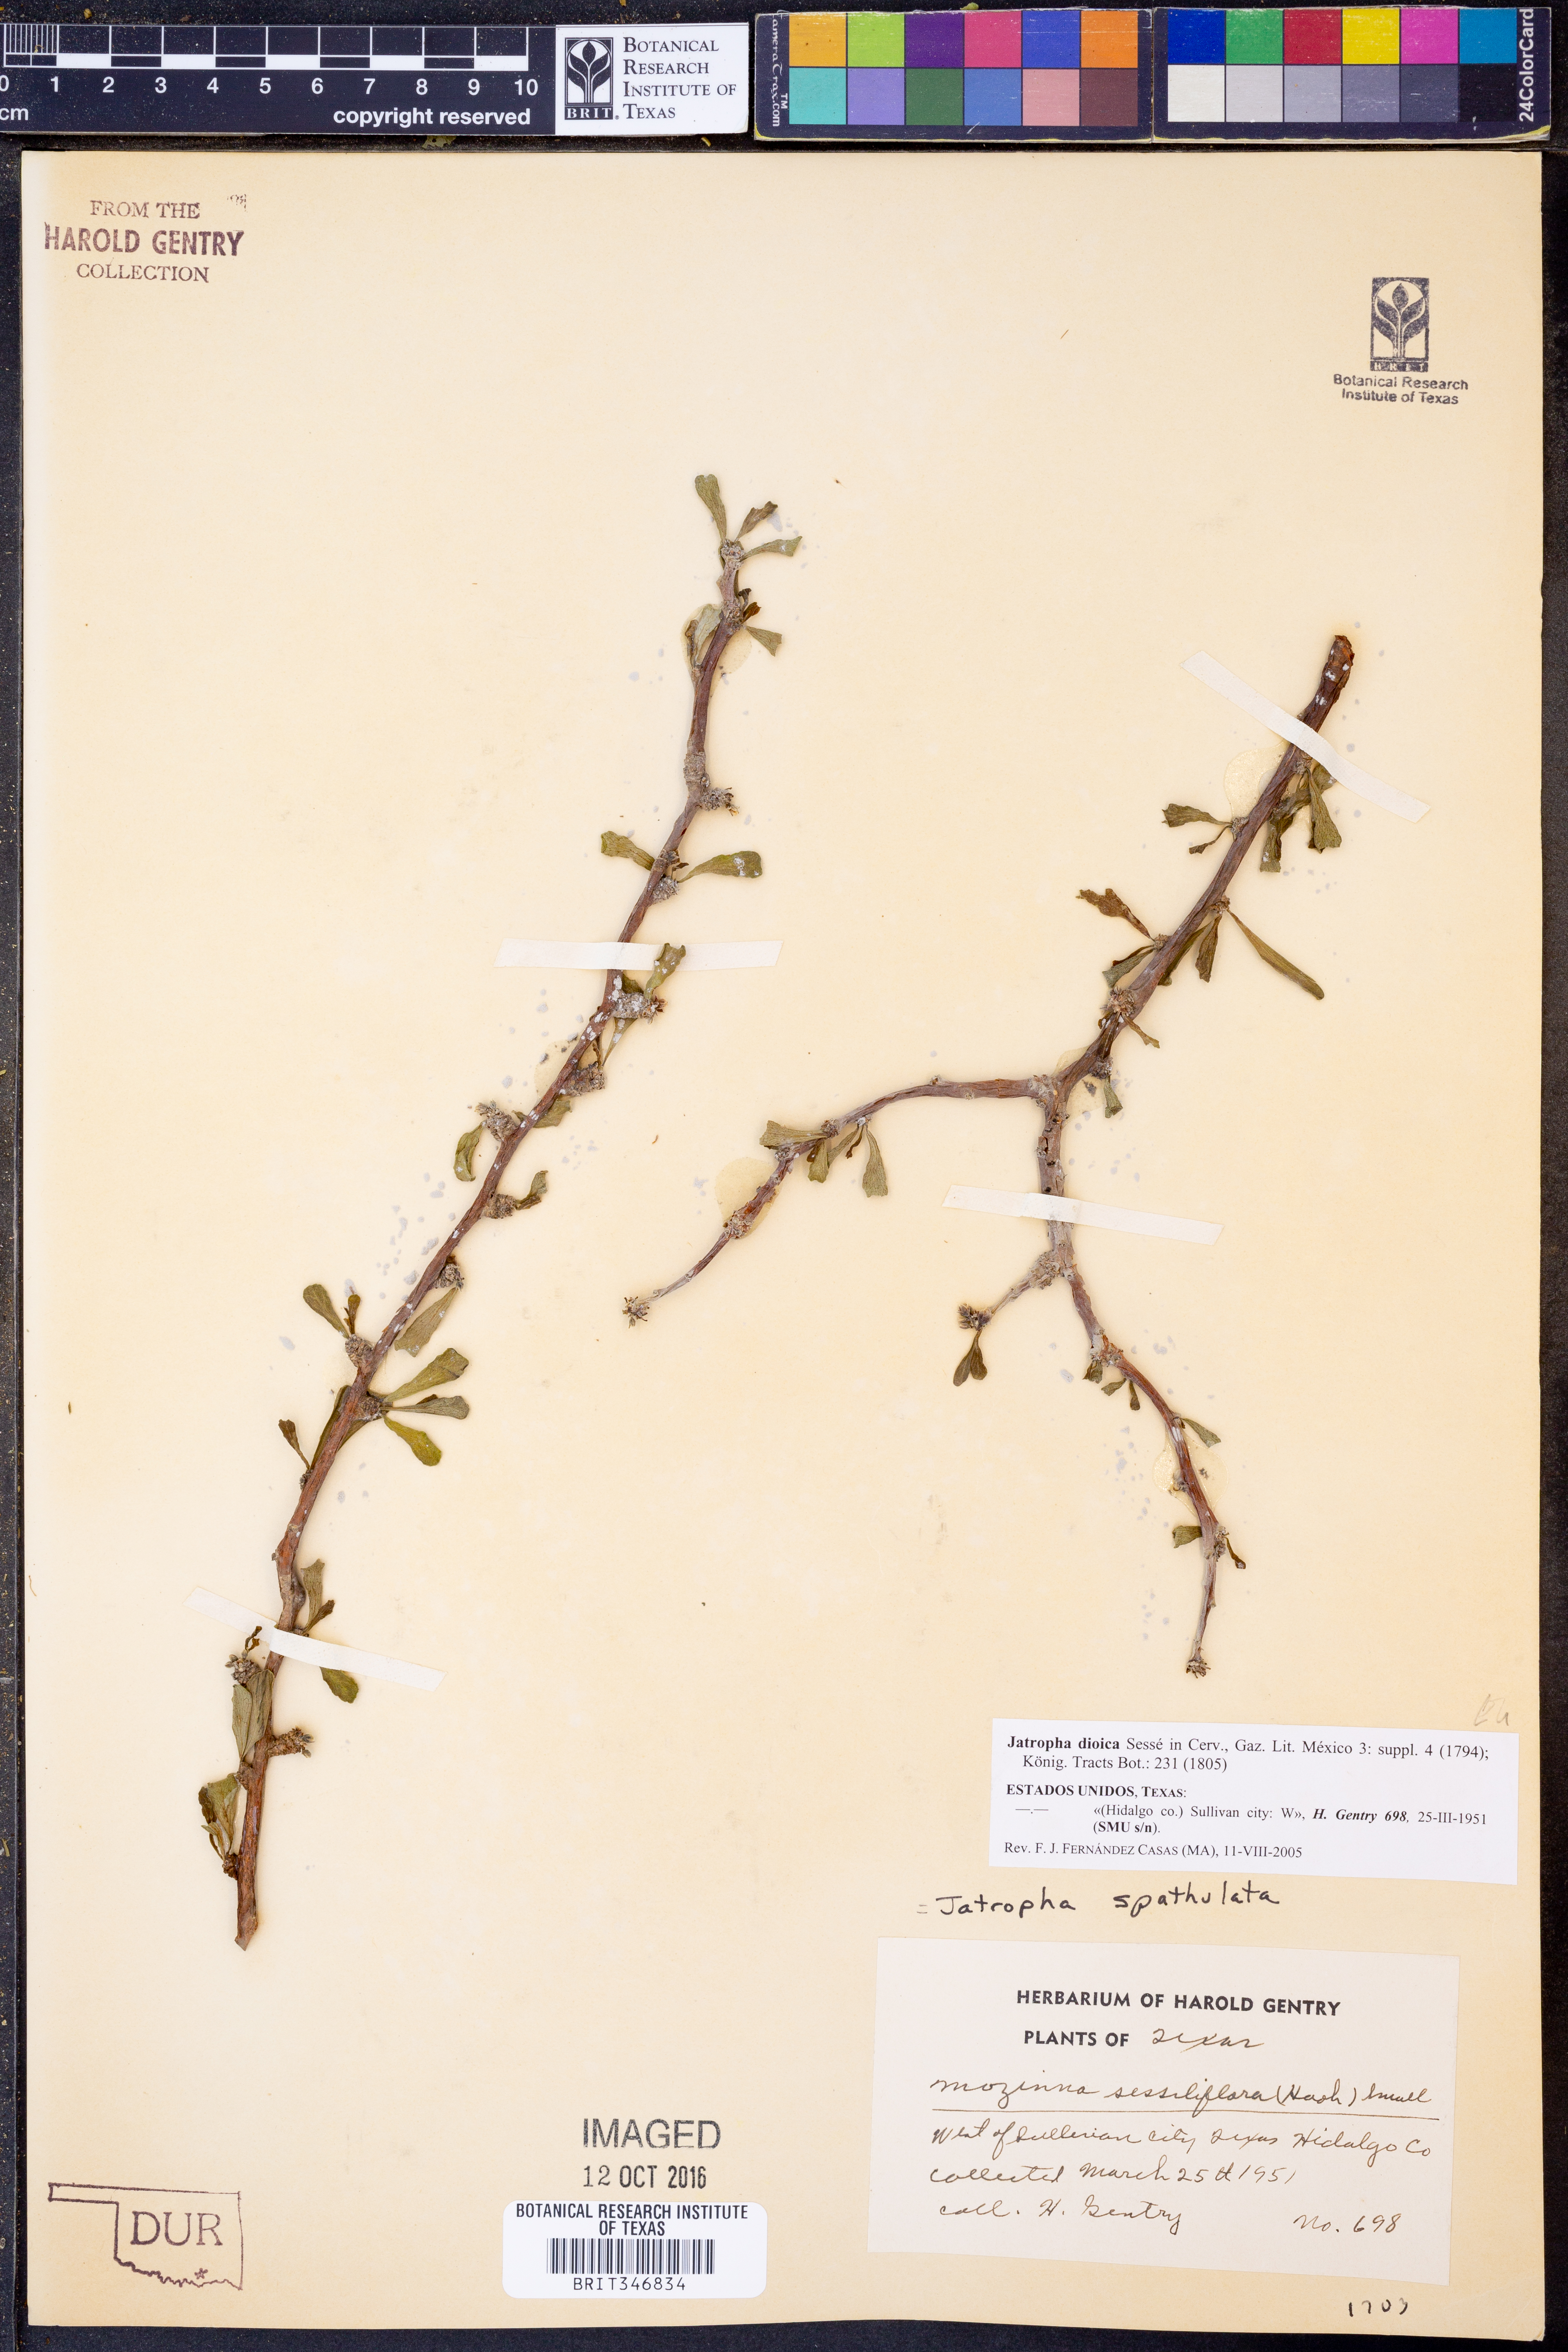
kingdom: Plantae
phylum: Tracheophyta
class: Magnoliopsida
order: Malpighiales
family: Euphorbiaceae
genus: Jatropha
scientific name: Jatropha dioica
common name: Leatherstem
